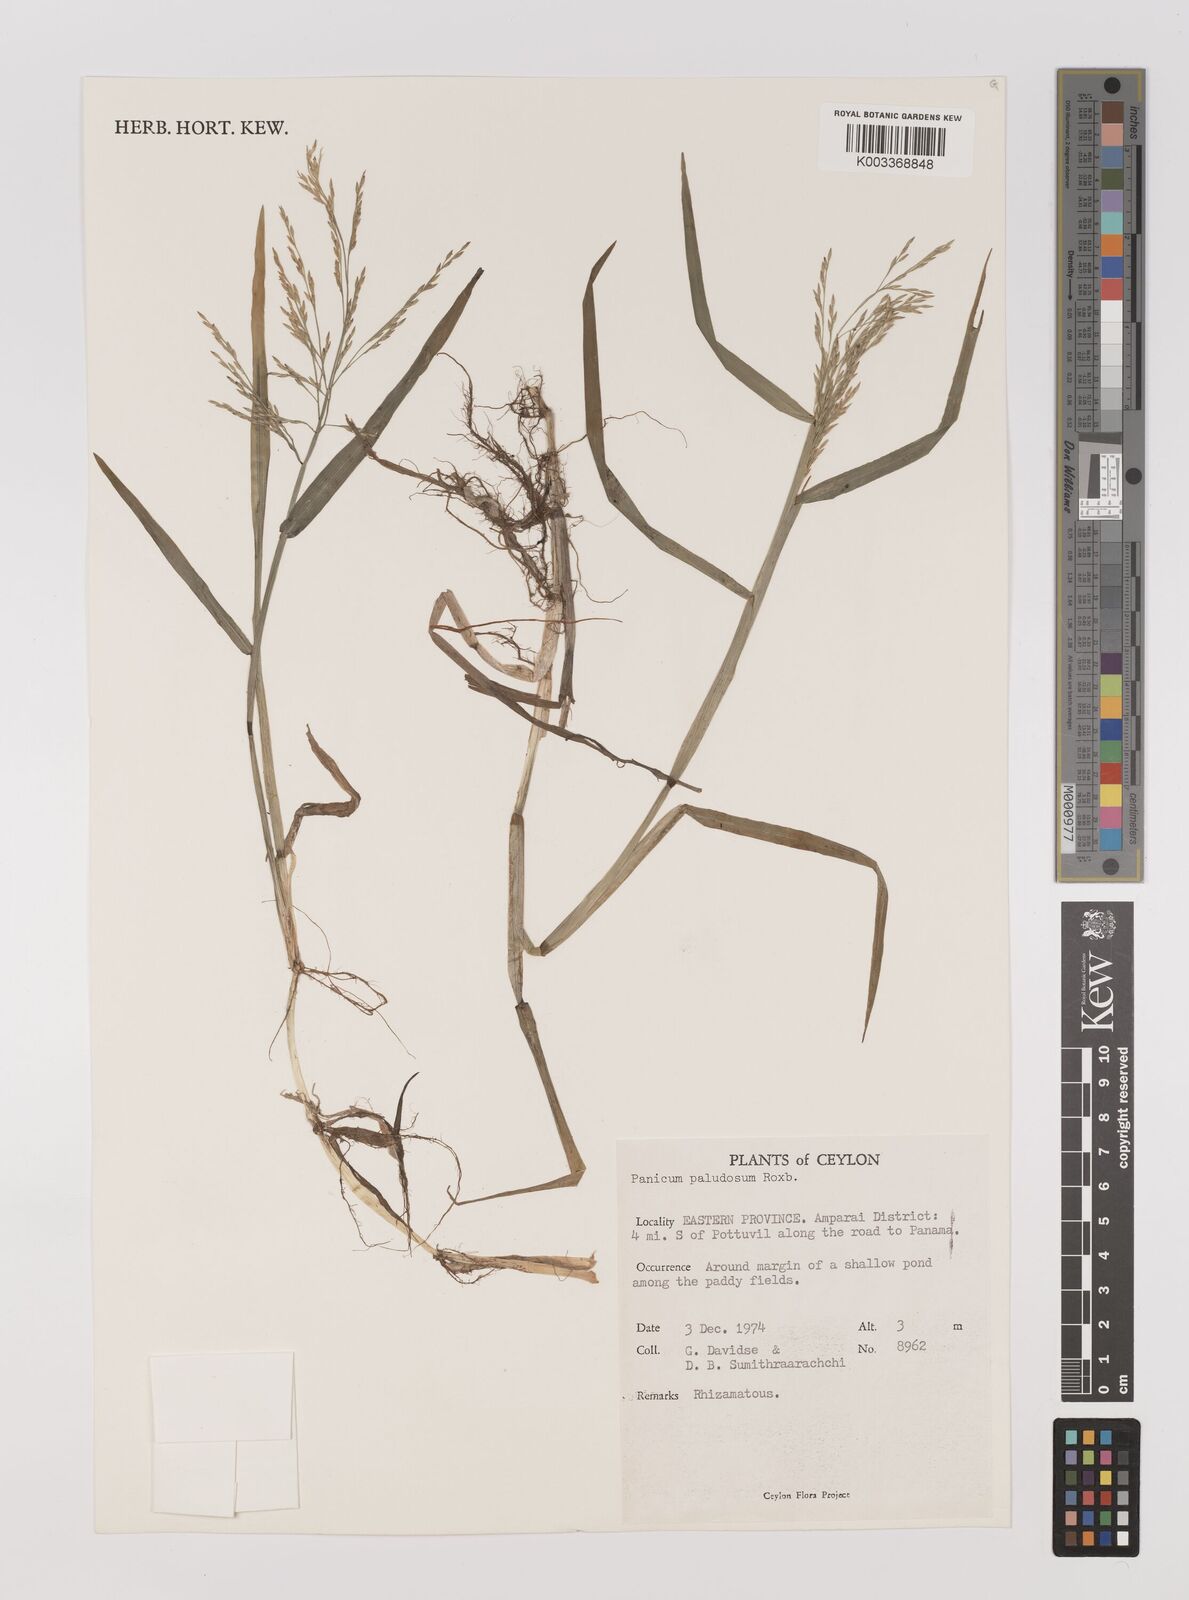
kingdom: Plantae
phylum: Tracheophyta
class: Liliopsida
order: Poales
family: Poaceae
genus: Louisiella
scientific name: Louisiella paludosa
